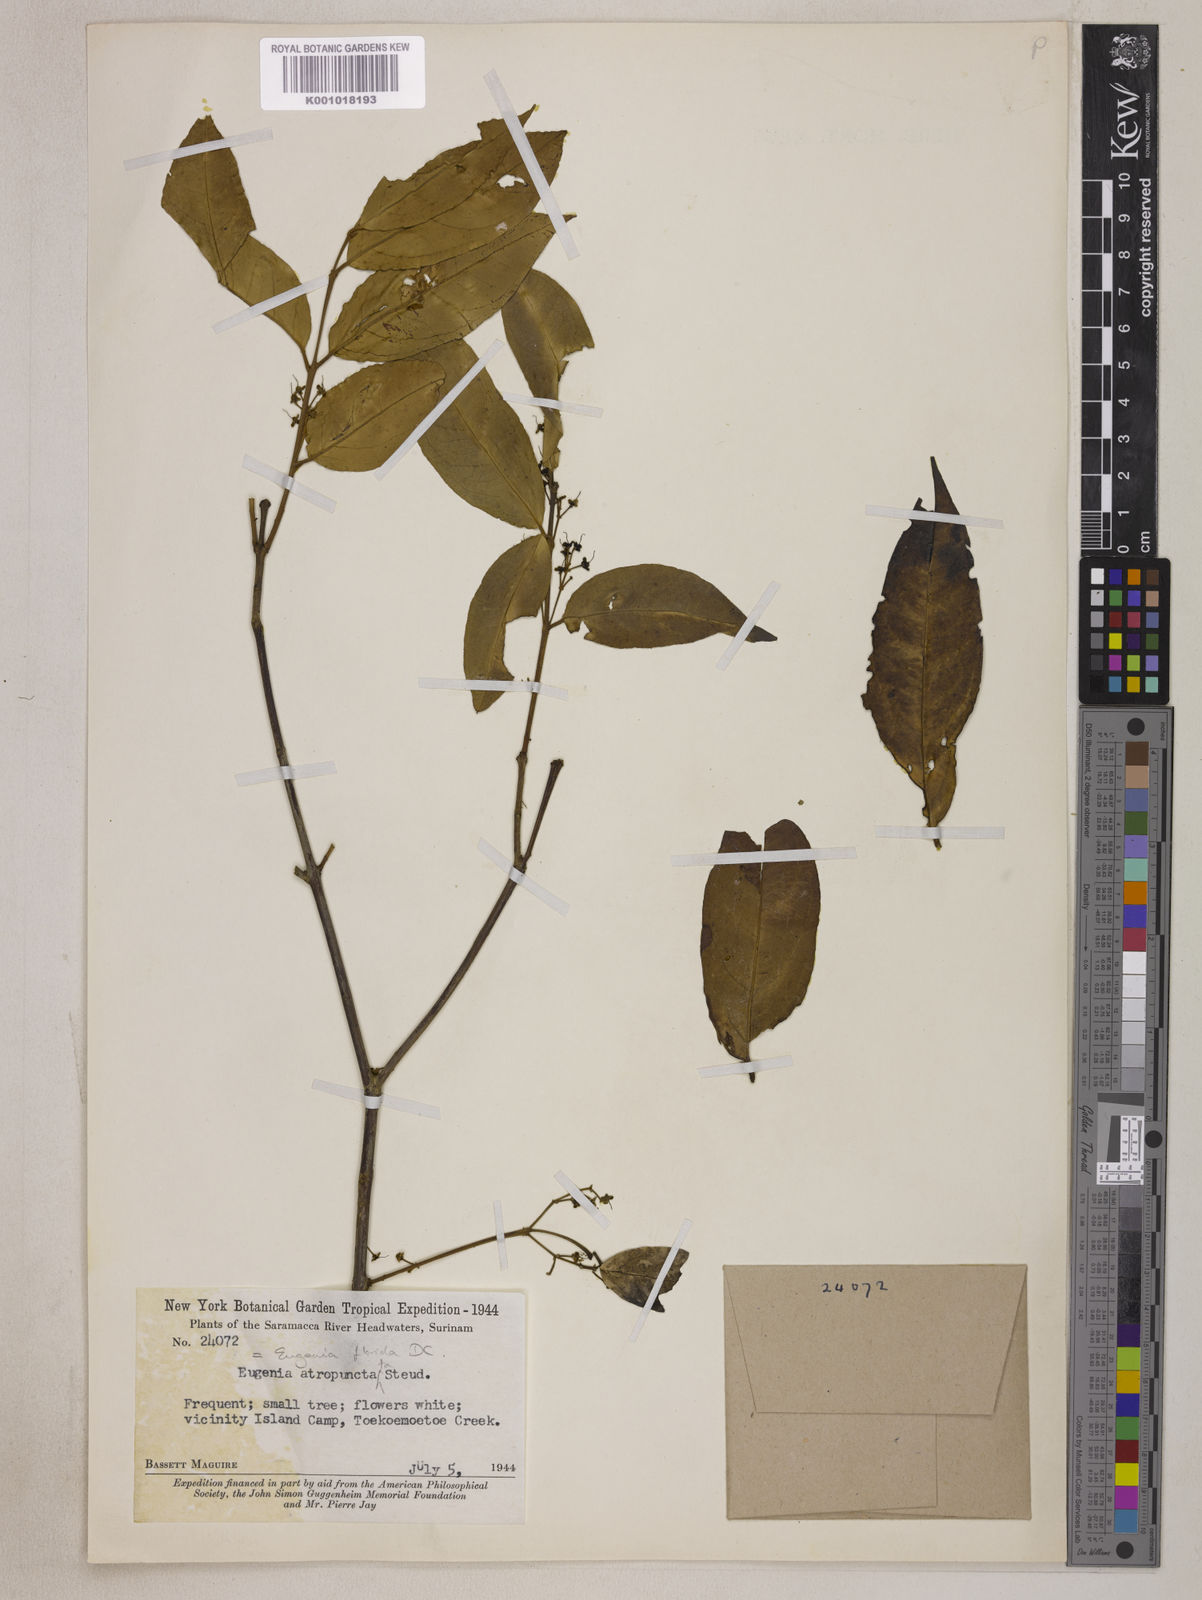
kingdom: Plantae
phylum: Tracheophyta
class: Magnoliopsida
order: Myrtales
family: Myrtaceae
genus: Eugenia
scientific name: Eugenia florida
